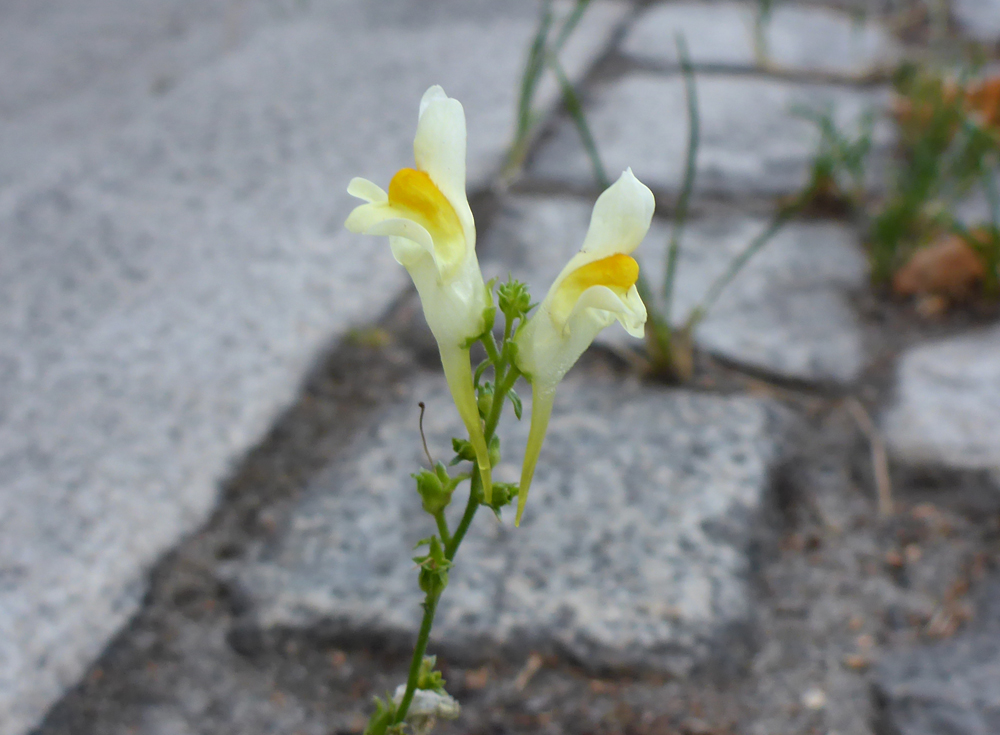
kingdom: Plantae
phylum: Tracheophyta
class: Magnoliopsida
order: Lamiales
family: Plantaginaceae
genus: Linaria
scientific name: Linaria vulgaris
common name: Butter and eggs
